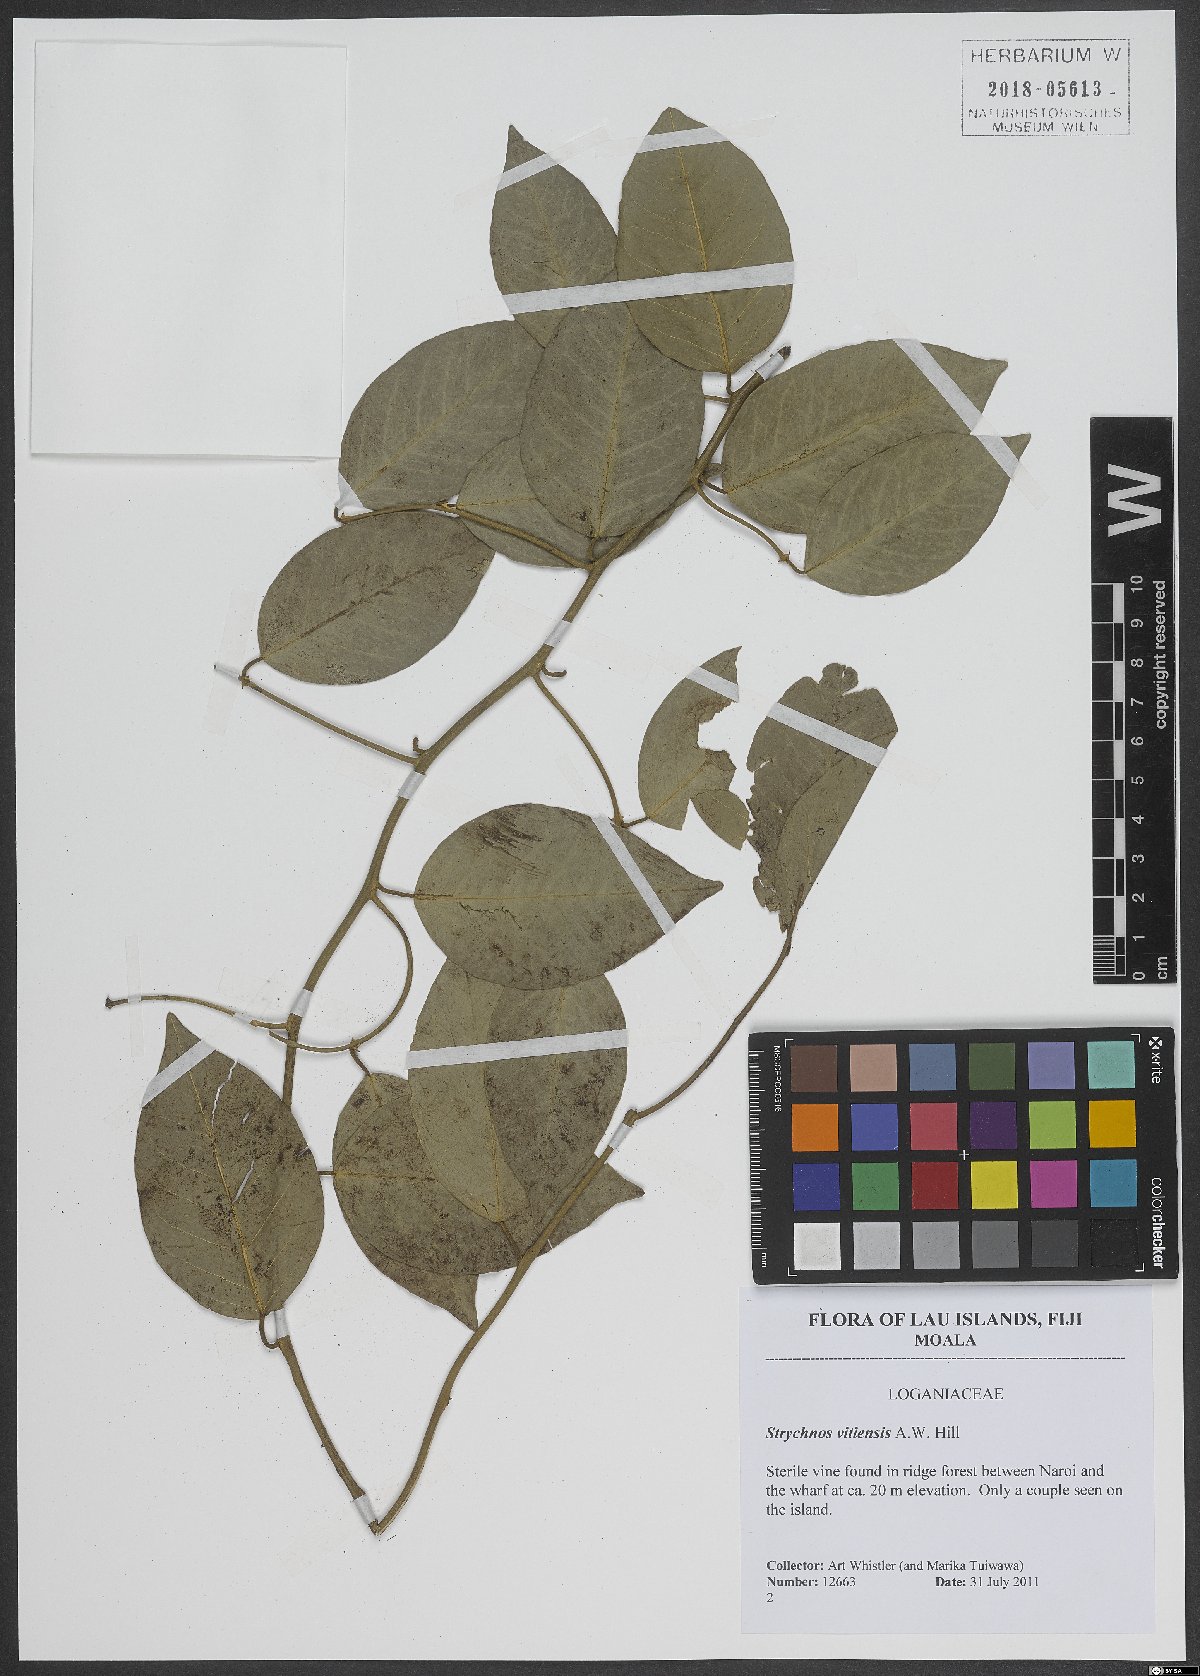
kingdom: Plantae
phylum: Tracheophyta
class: Magnoliopsida
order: Gentianales
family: Loganiaceae
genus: Strychnos
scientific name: Strychnos vitiensis
